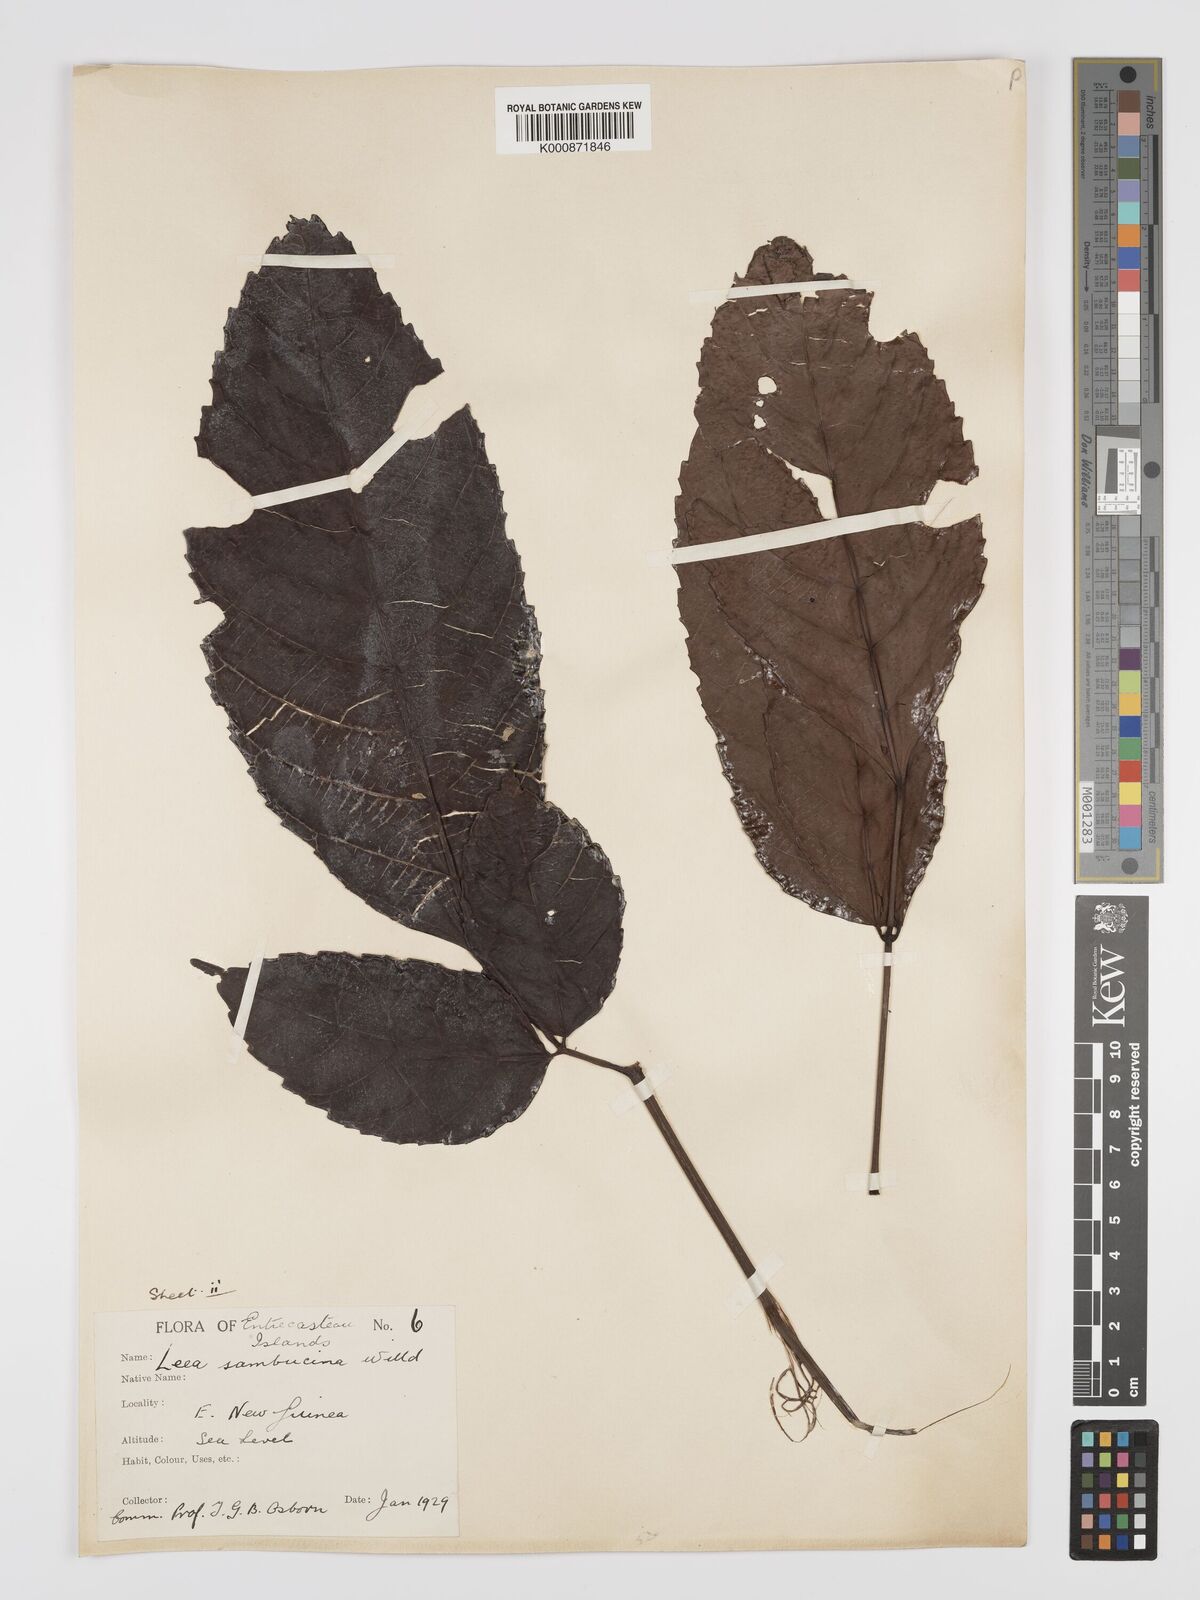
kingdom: Plantae
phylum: Tracheophyta
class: Magnoliopsida
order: Vitales
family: Vitaceae
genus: Leea
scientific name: Leea indica
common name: Bandicoot-berry
